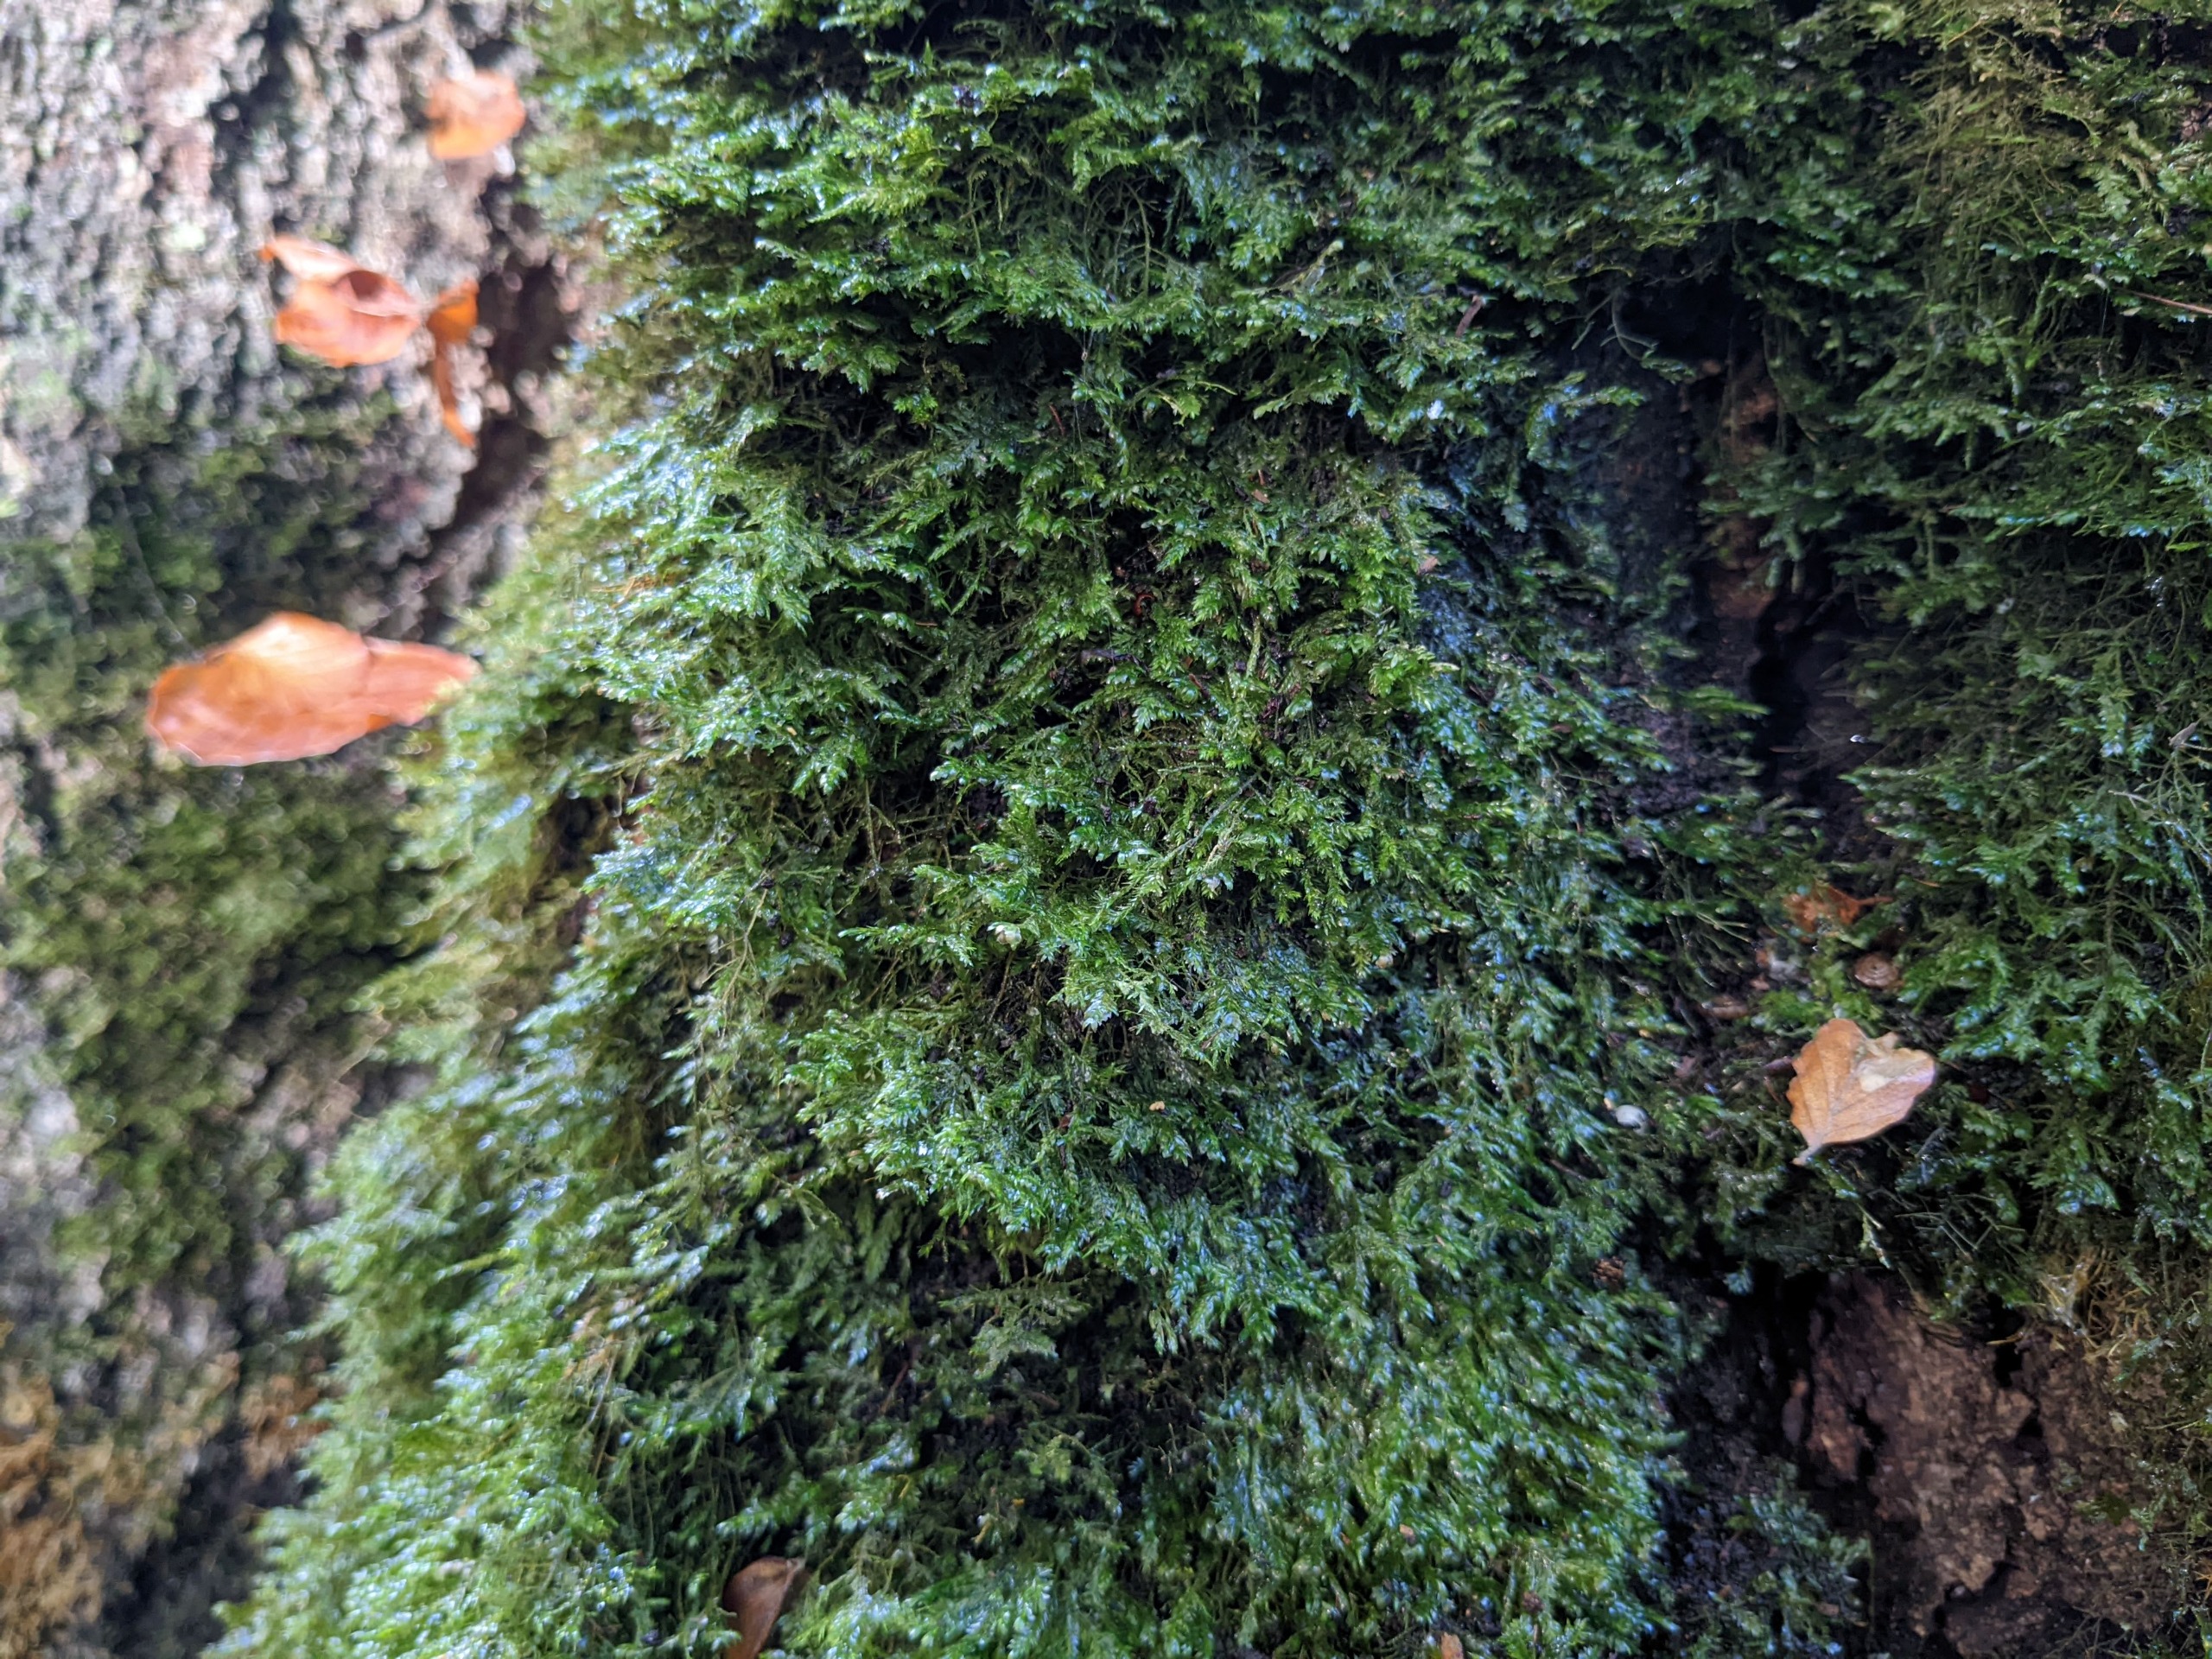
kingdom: Plantae
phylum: Bryophyta
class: Bryopsida
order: Hypnales
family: Neckeraceae
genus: Alleniella
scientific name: Alleniella complanata
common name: Almindelig fladmos
